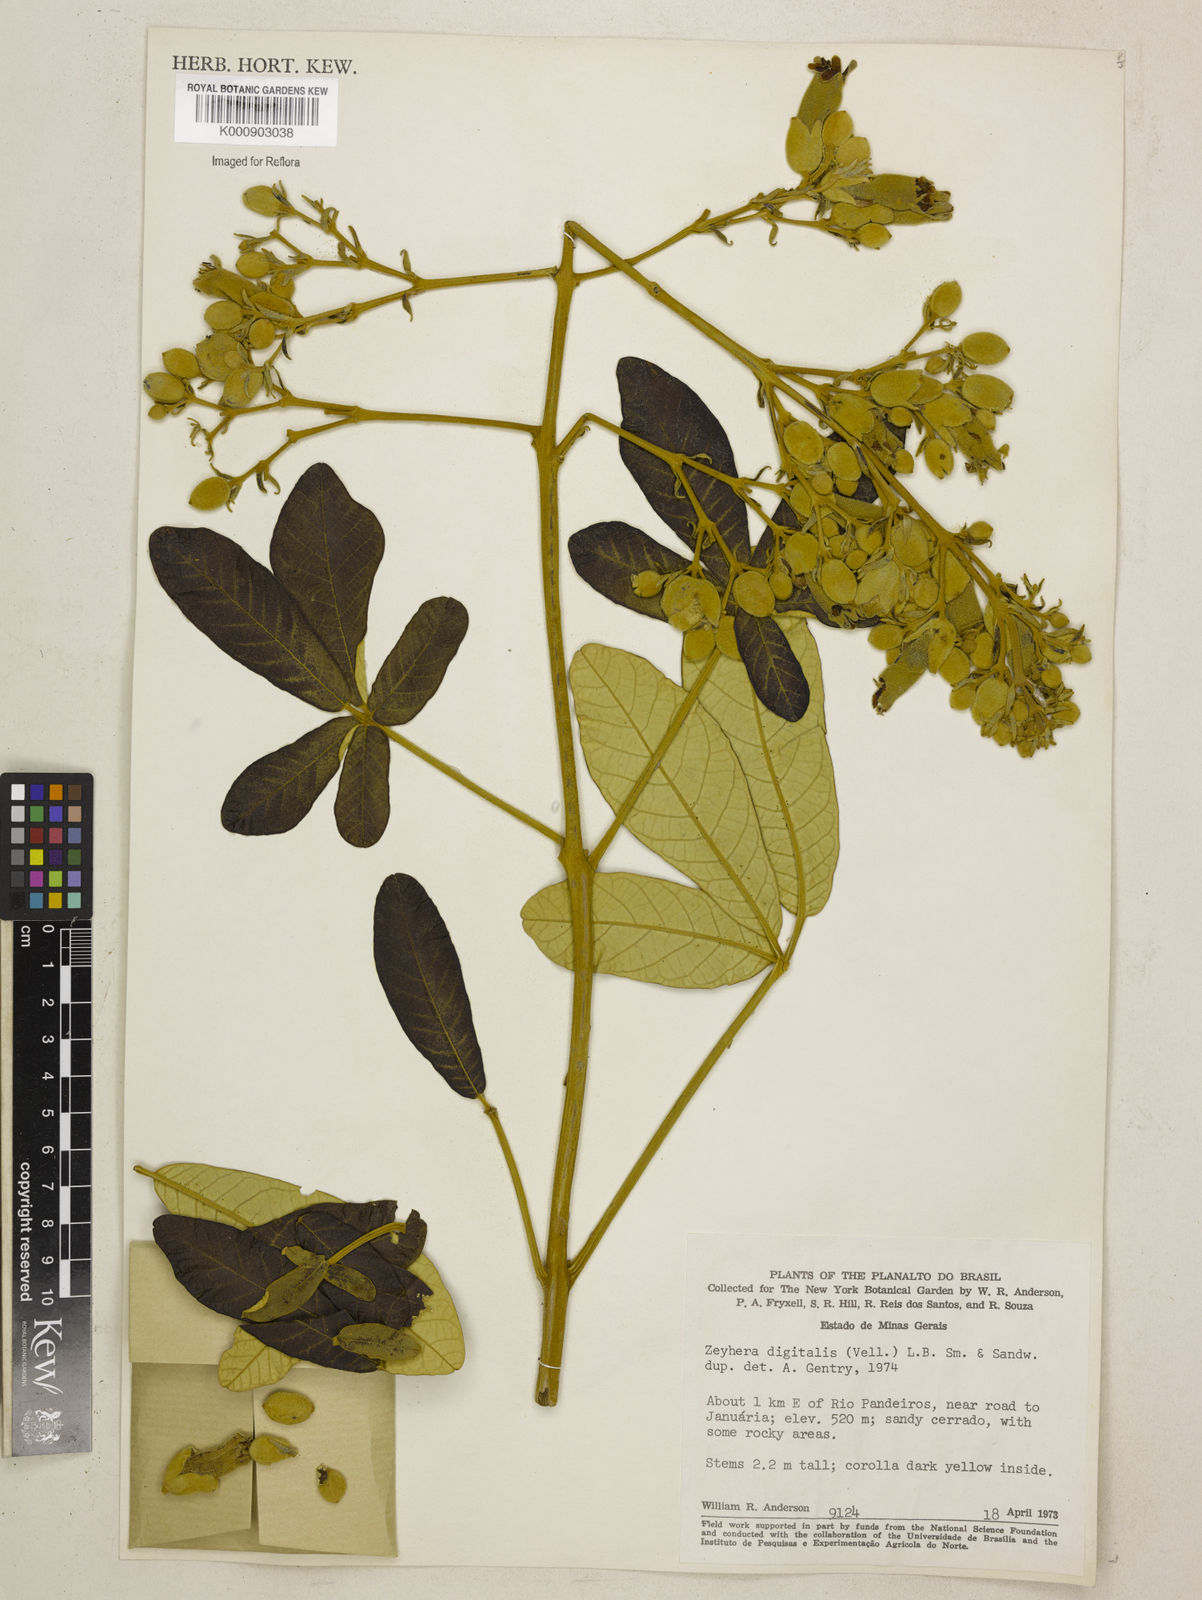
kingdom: Plantae
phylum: Tracheophyta
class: Magnoliopsida
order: Lamiales
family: Bignoniaceae
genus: Zeyheria
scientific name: Zeyheria
